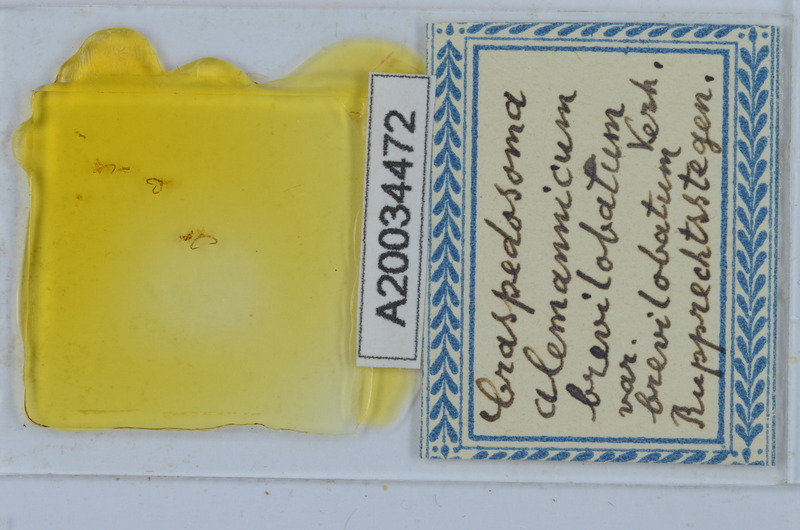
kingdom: Animalia
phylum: Arthropoda
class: Diplopoda
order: Chordeumatida
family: Craspedosomatidae
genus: Craspedosoma
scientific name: Craspedosoma rawlinsii
